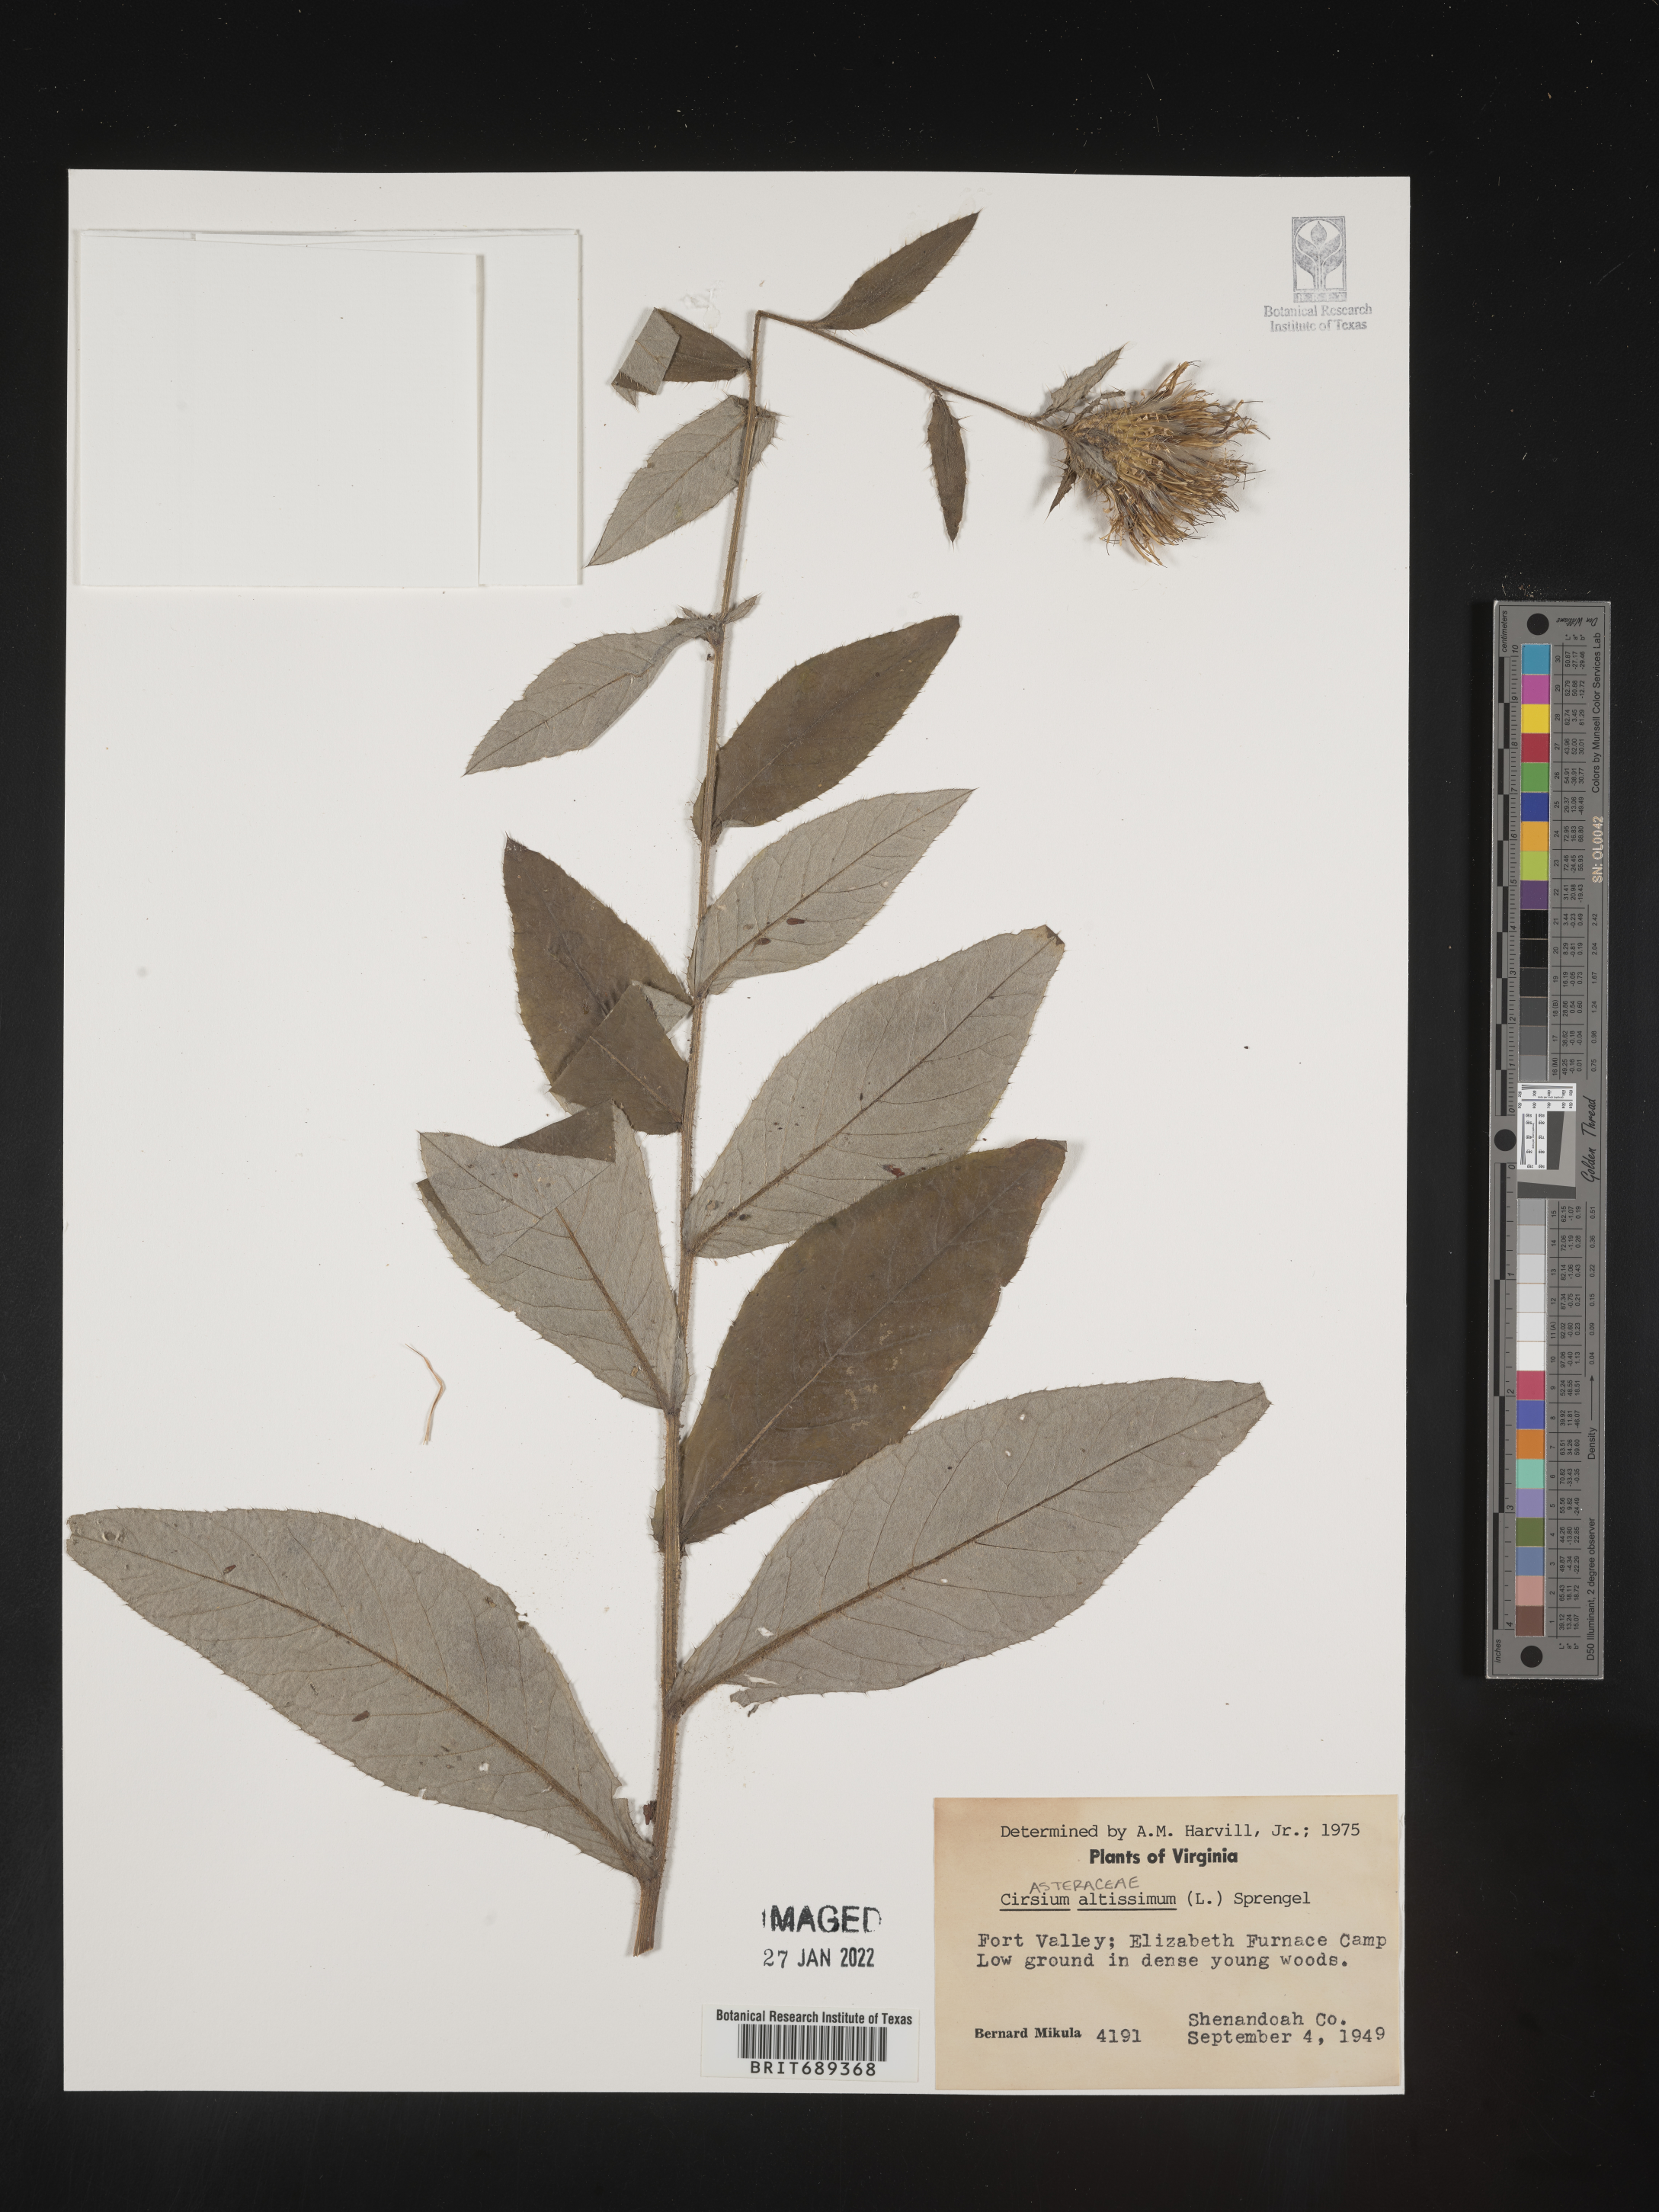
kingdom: Plantae
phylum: Tracheophyta
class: Magnoliopsida
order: Asterales
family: Asteraceae
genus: Cirsium
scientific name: Cirsium altissimum
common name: Roadside thistle
